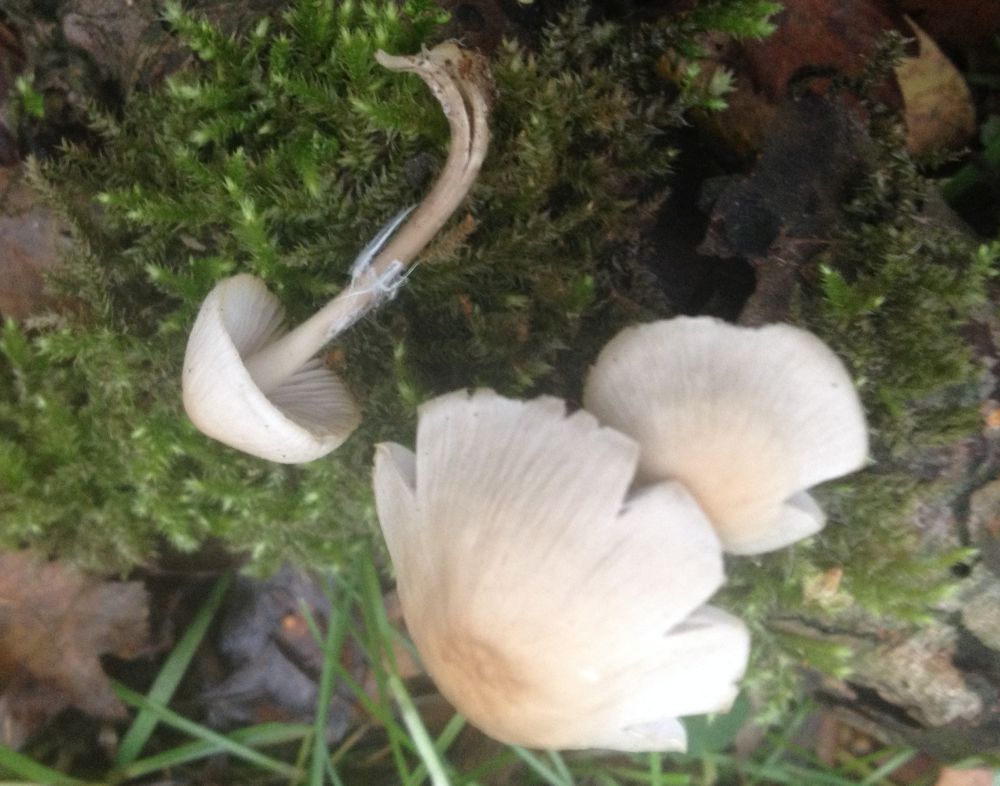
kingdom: Fungi
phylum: Basidiomycota
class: Agaricomycetes
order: Agaricales
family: Mycenaceae
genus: Mycena
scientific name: Mycena galericulata
